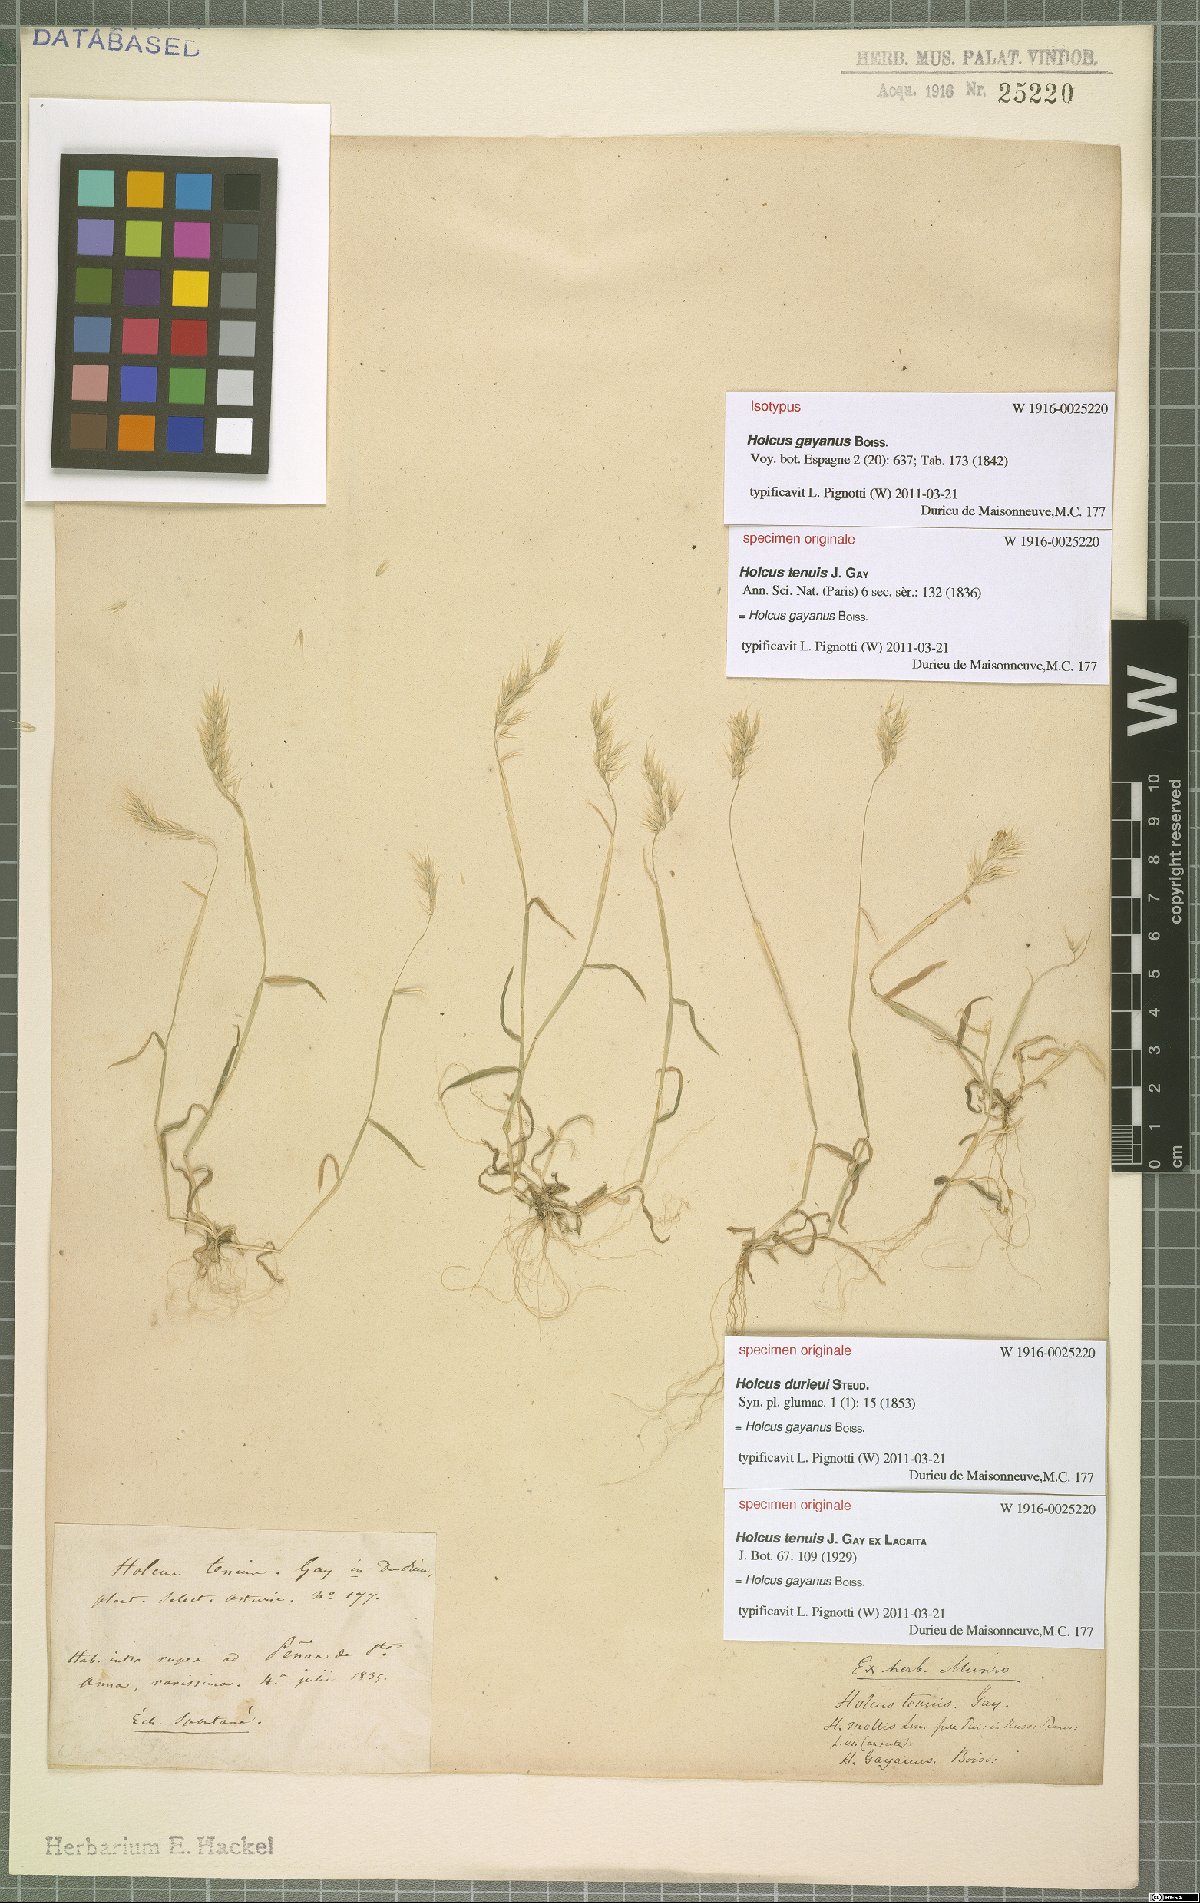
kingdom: Plantae
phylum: Tracheophyta
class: Liliopsida
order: Poales
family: Poaceae
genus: Holcus
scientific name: Holcus gayanus
